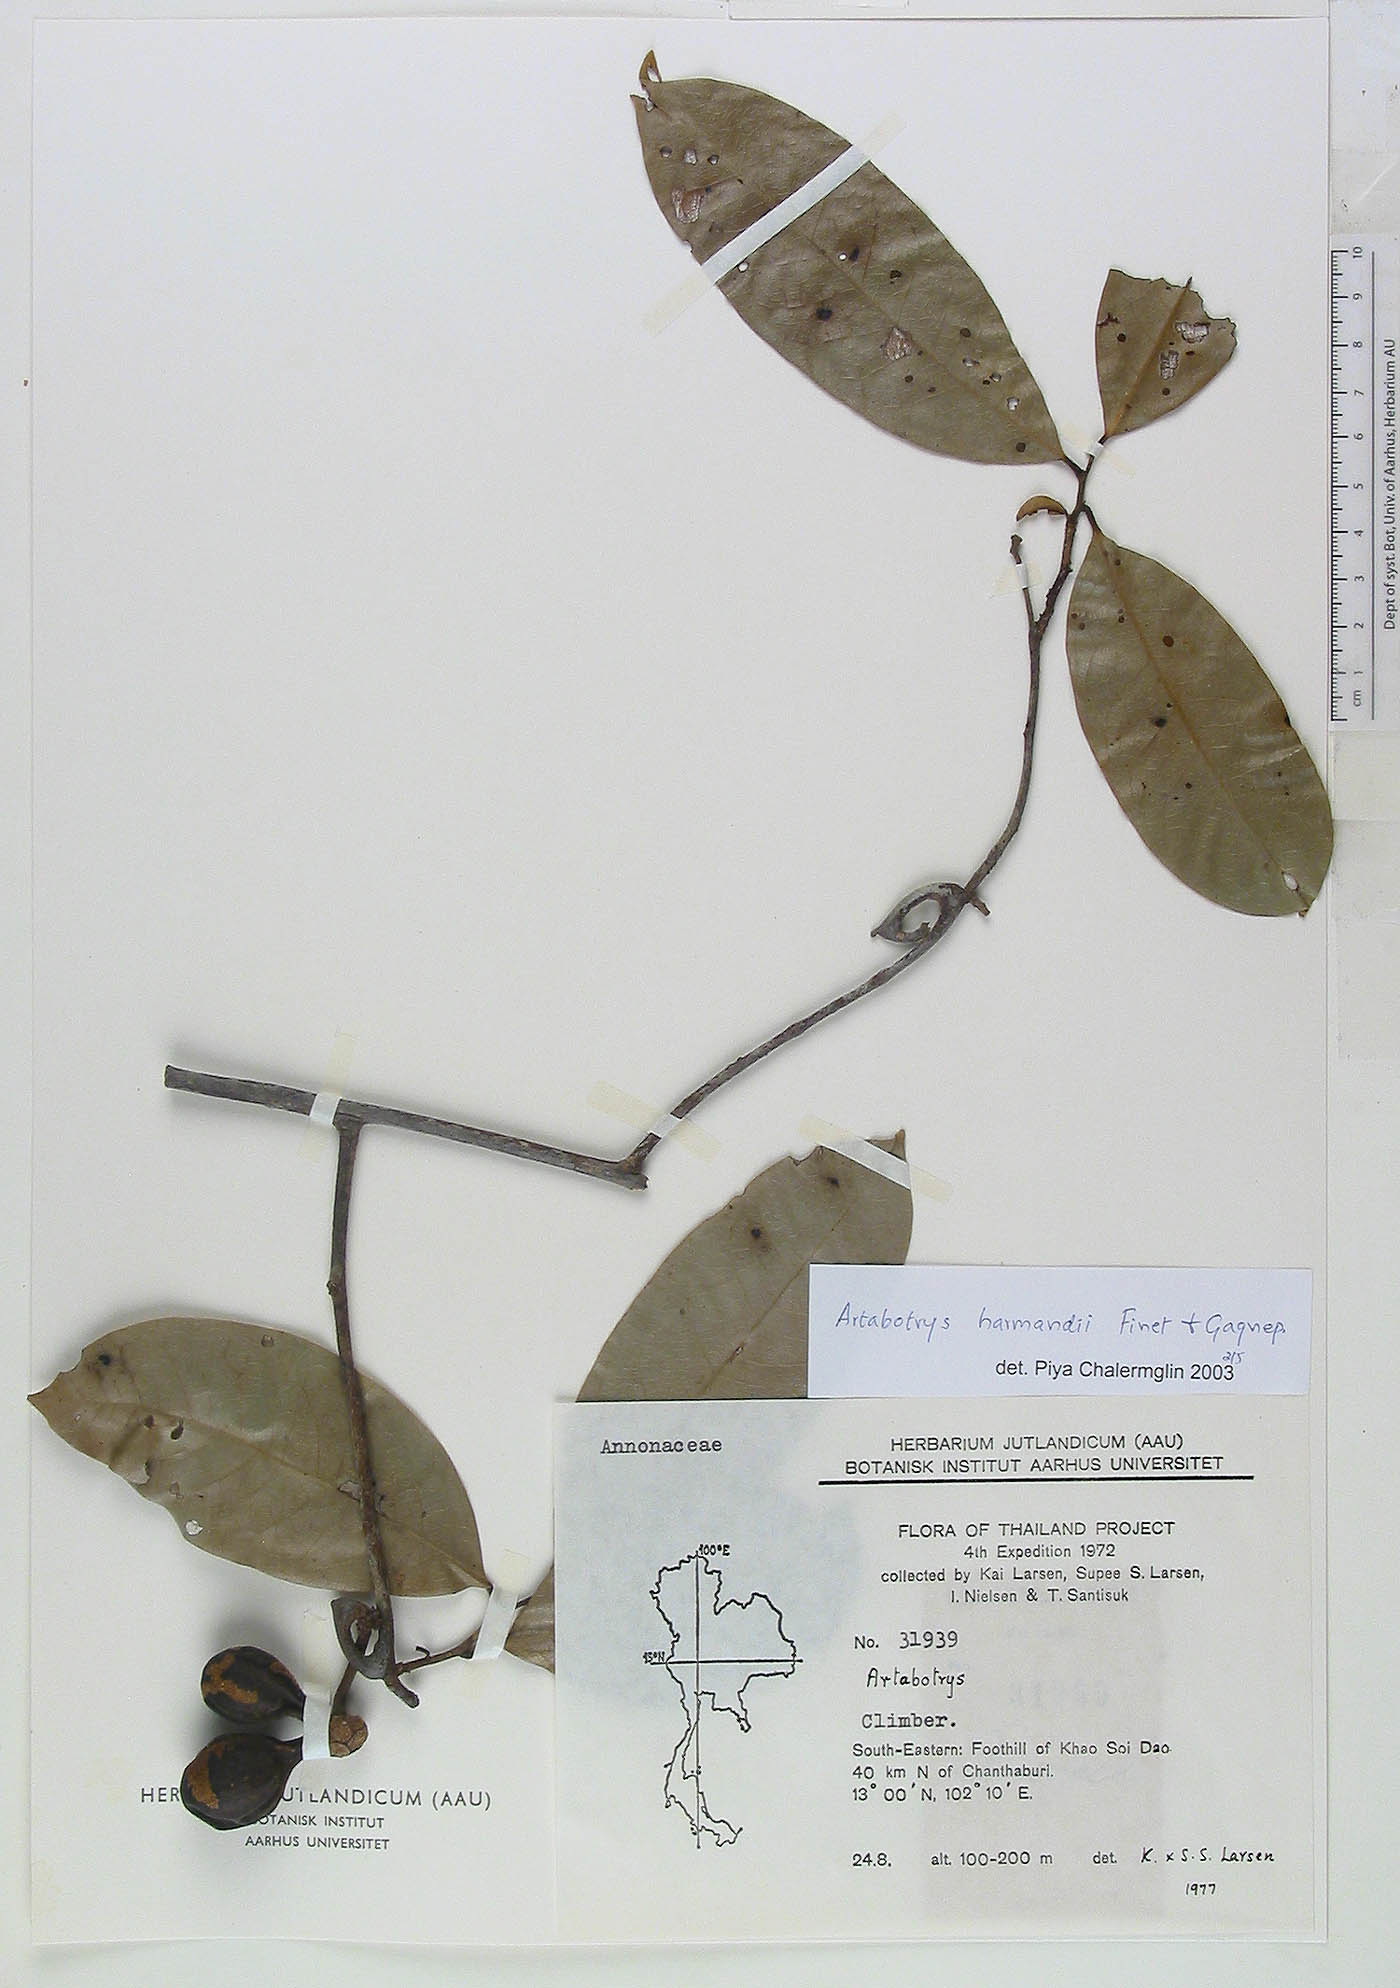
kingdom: Plantae
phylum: Tracheophyta
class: Magnoliopsida
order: Magnoliales
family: Annonaceae
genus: Artabotrys
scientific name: Artabotrys harmandii
